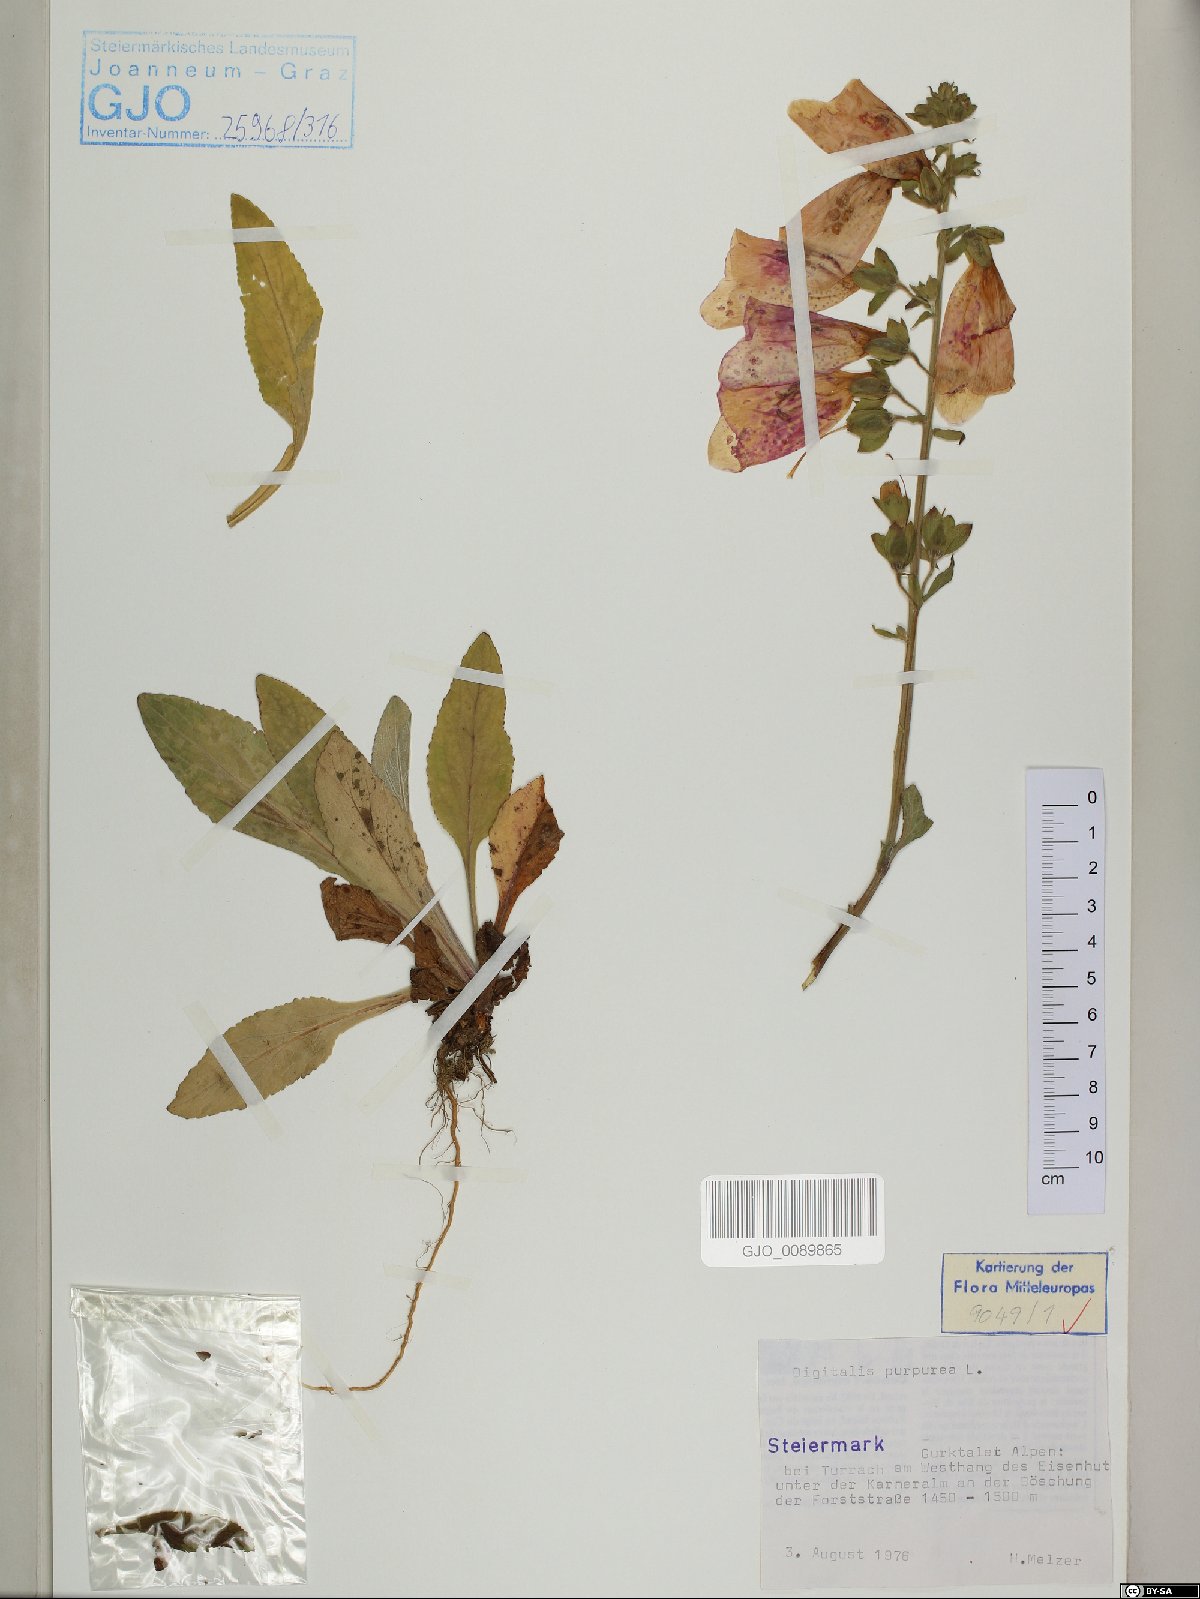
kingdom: Plantae
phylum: Tracheophyta
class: Magnoliopsida
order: Lamiales
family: Plantaginaceae
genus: Digitalis
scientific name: Digitalis purpurea
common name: Foxglove
